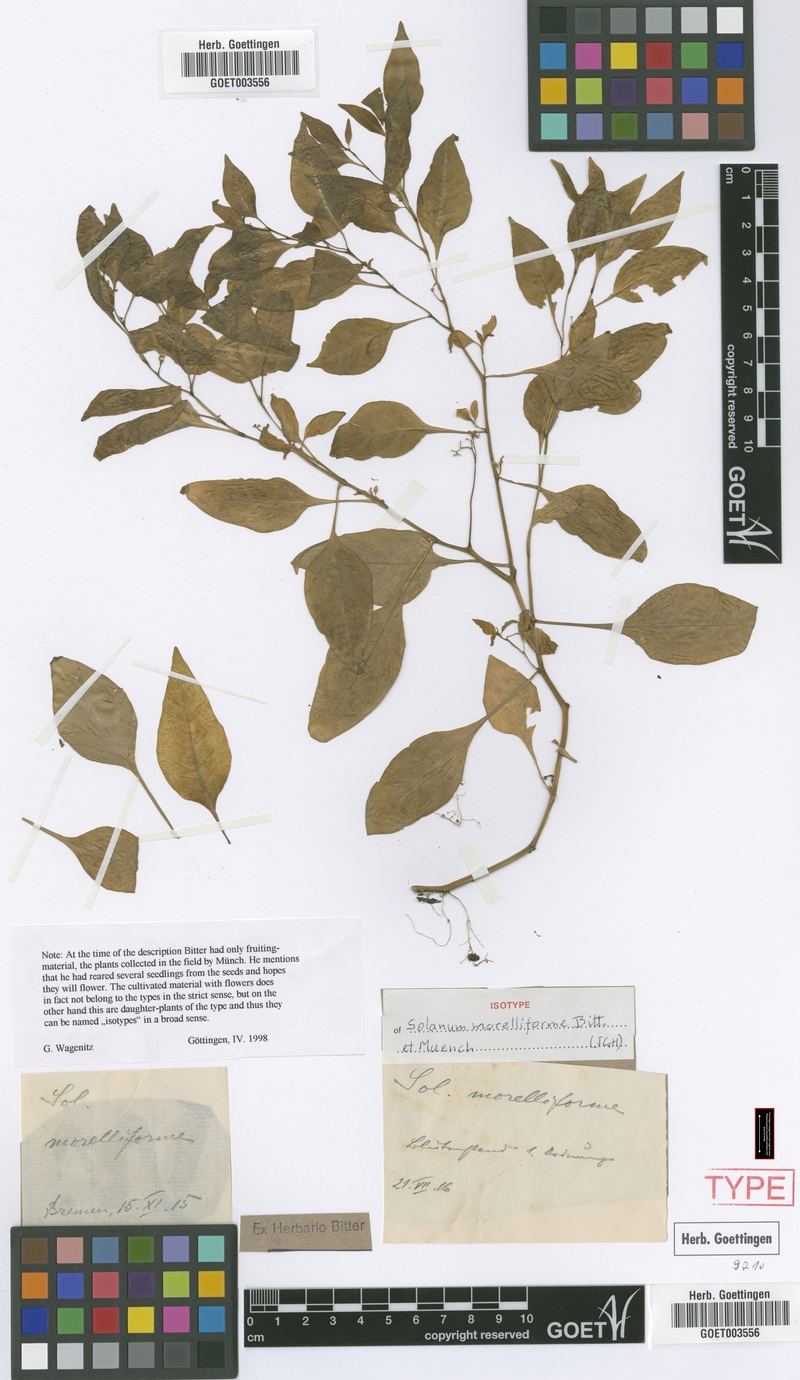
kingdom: Plantae
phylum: Tracheophyta
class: Magnoliopsida
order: Solanales
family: Solanaceae
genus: Solanum
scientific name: Solanum morelliforme
